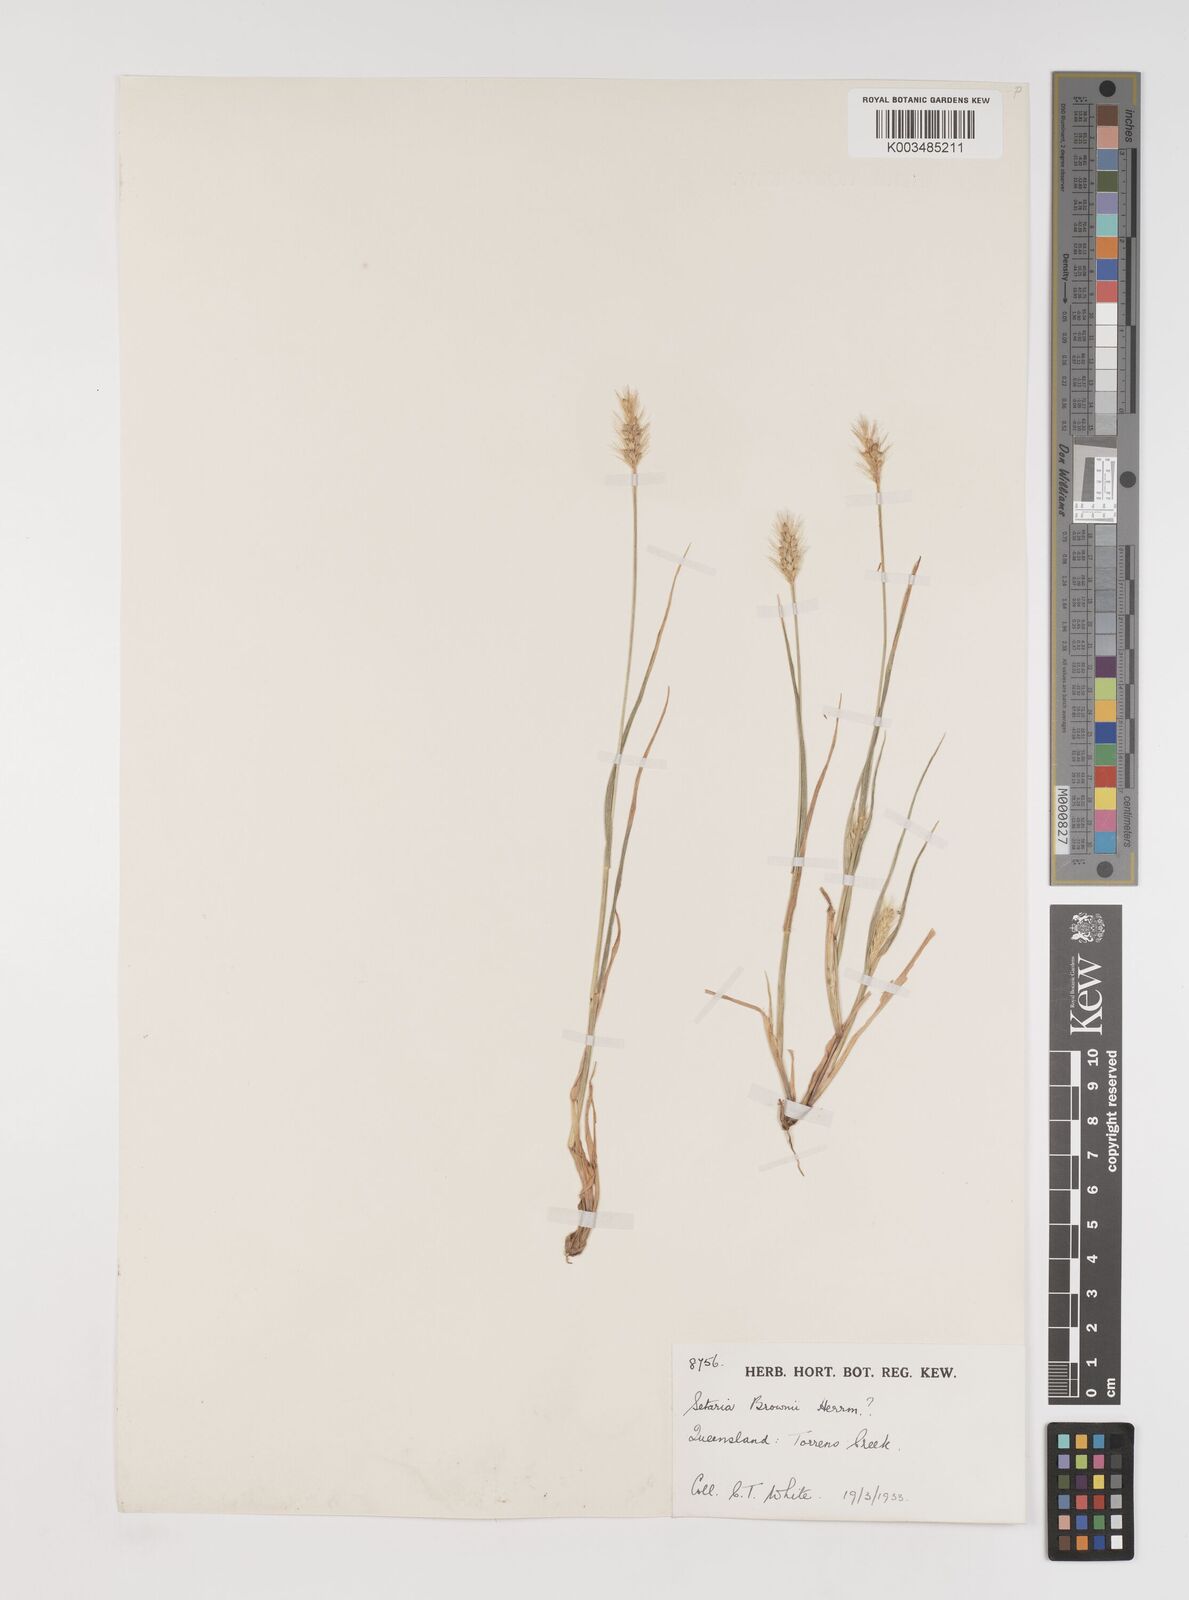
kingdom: Plantae
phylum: Tracheophyta
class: Liliopsida
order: Poales
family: Poaceae
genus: Setaria
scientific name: Setaria surgens
